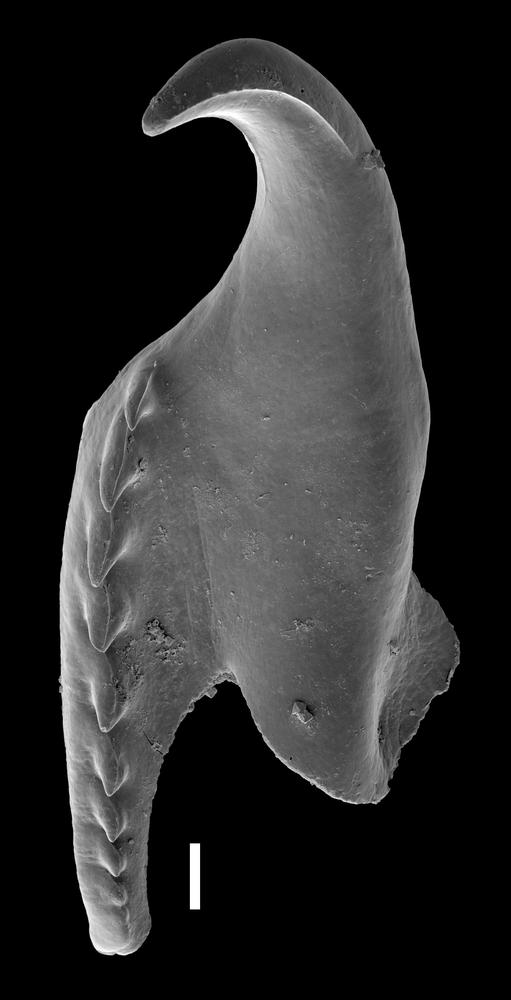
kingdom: Animalia
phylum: Annelida
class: Polychaeta
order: Eunicida
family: Atraktoprionidae
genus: Atraktoprion
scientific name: Atraktoprion
